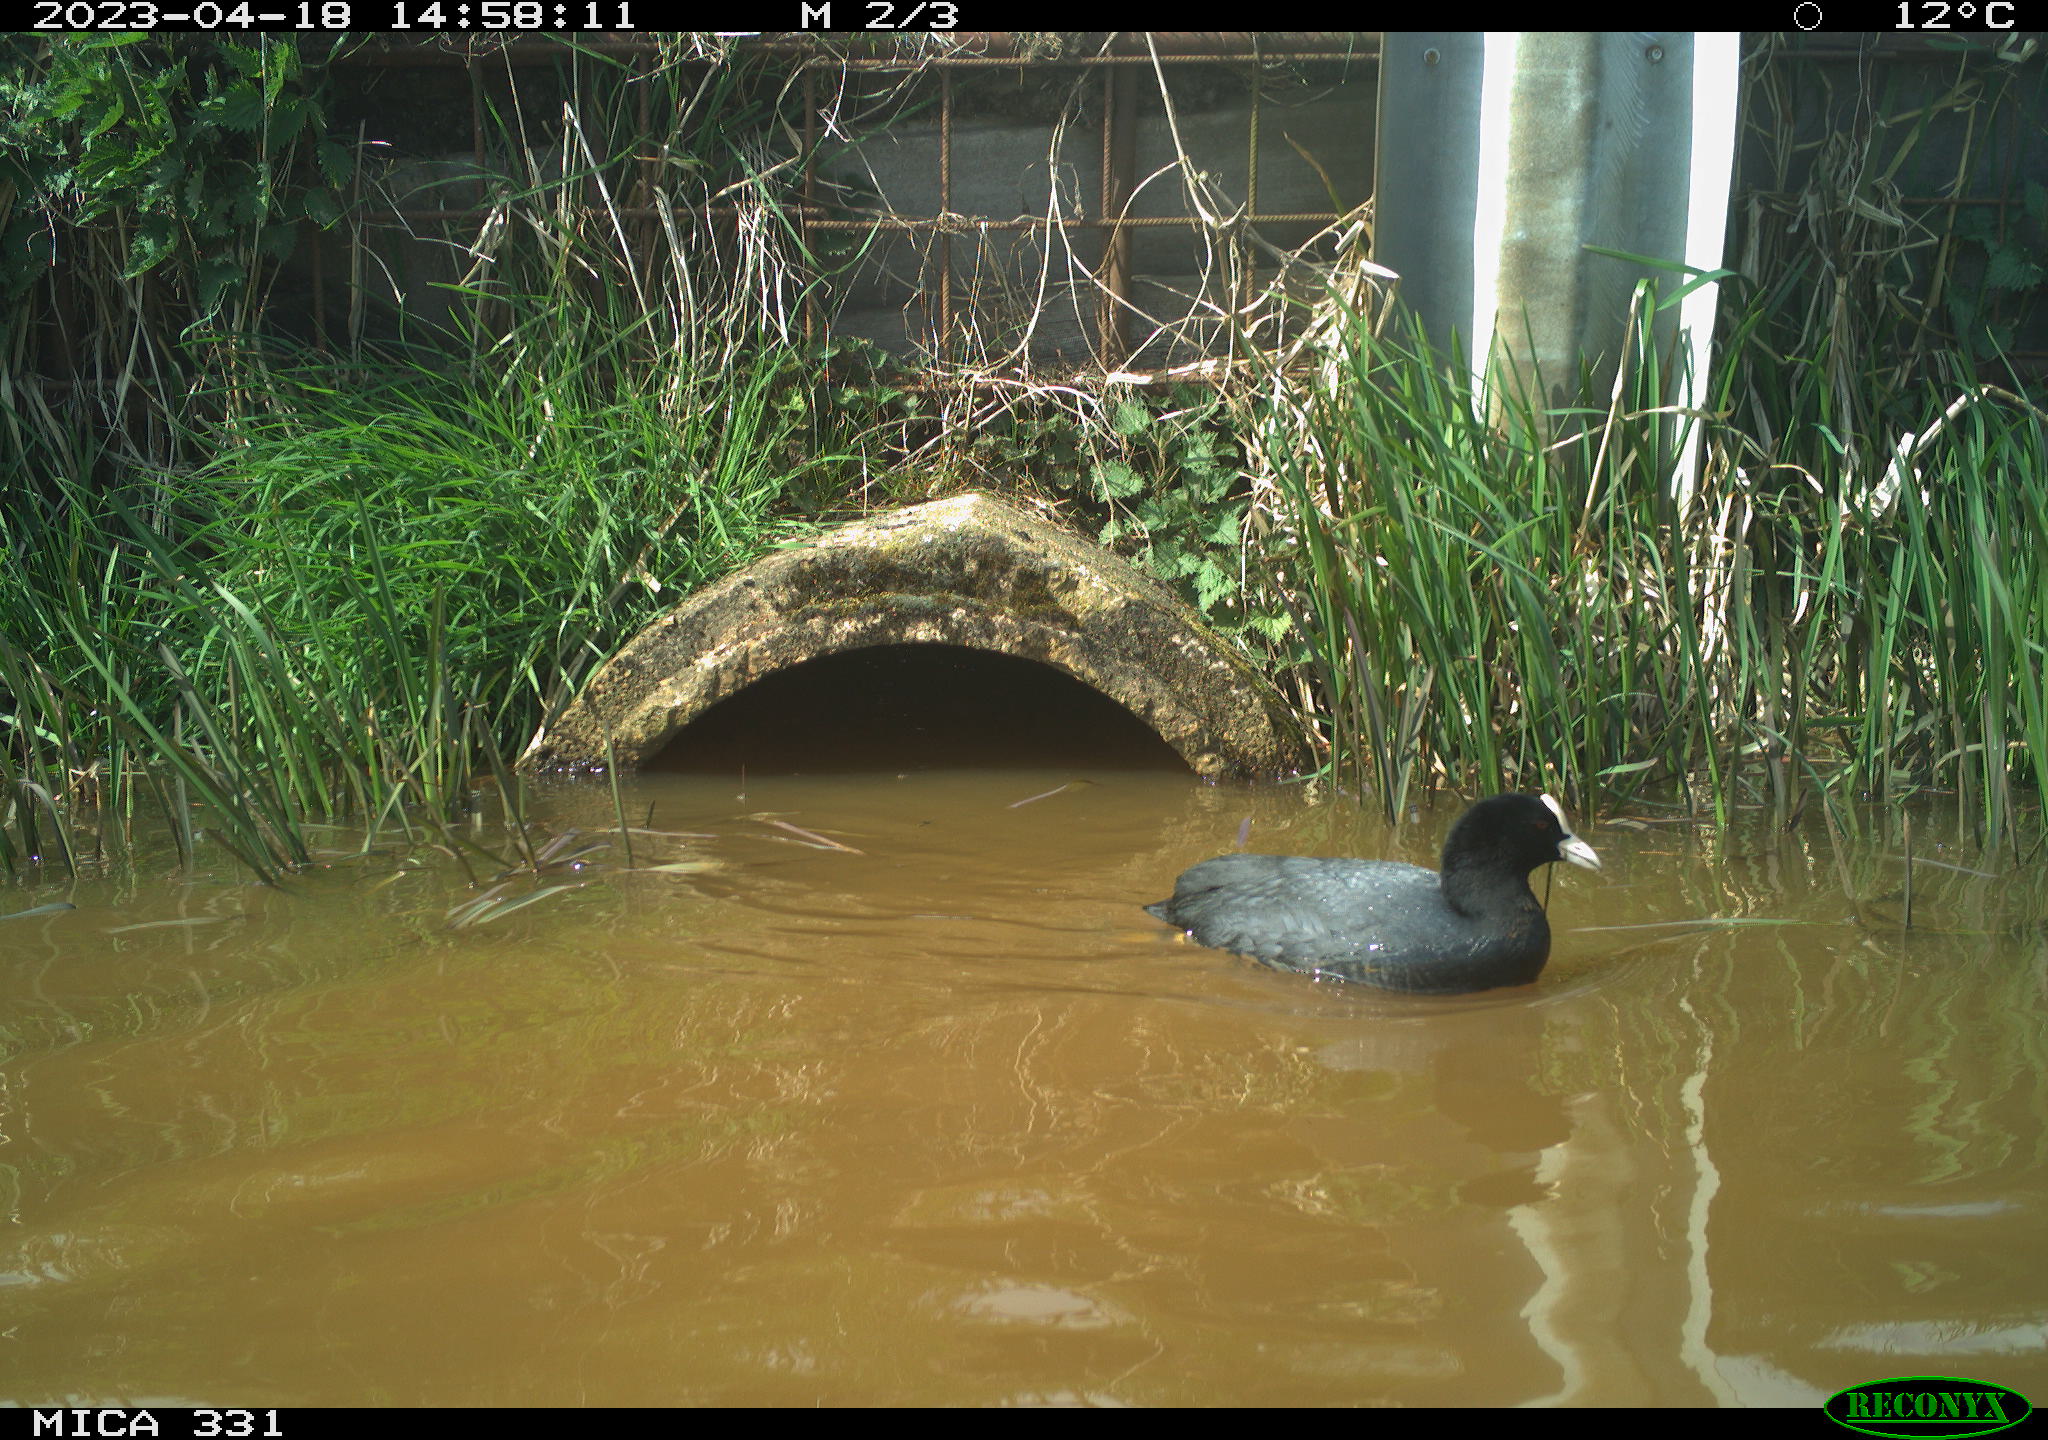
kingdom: Animalia
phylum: Chordata
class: Aves
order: Gruiformes
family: Rallidae
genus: Fulica
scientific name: Fulica atra
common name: Eurasian coot
